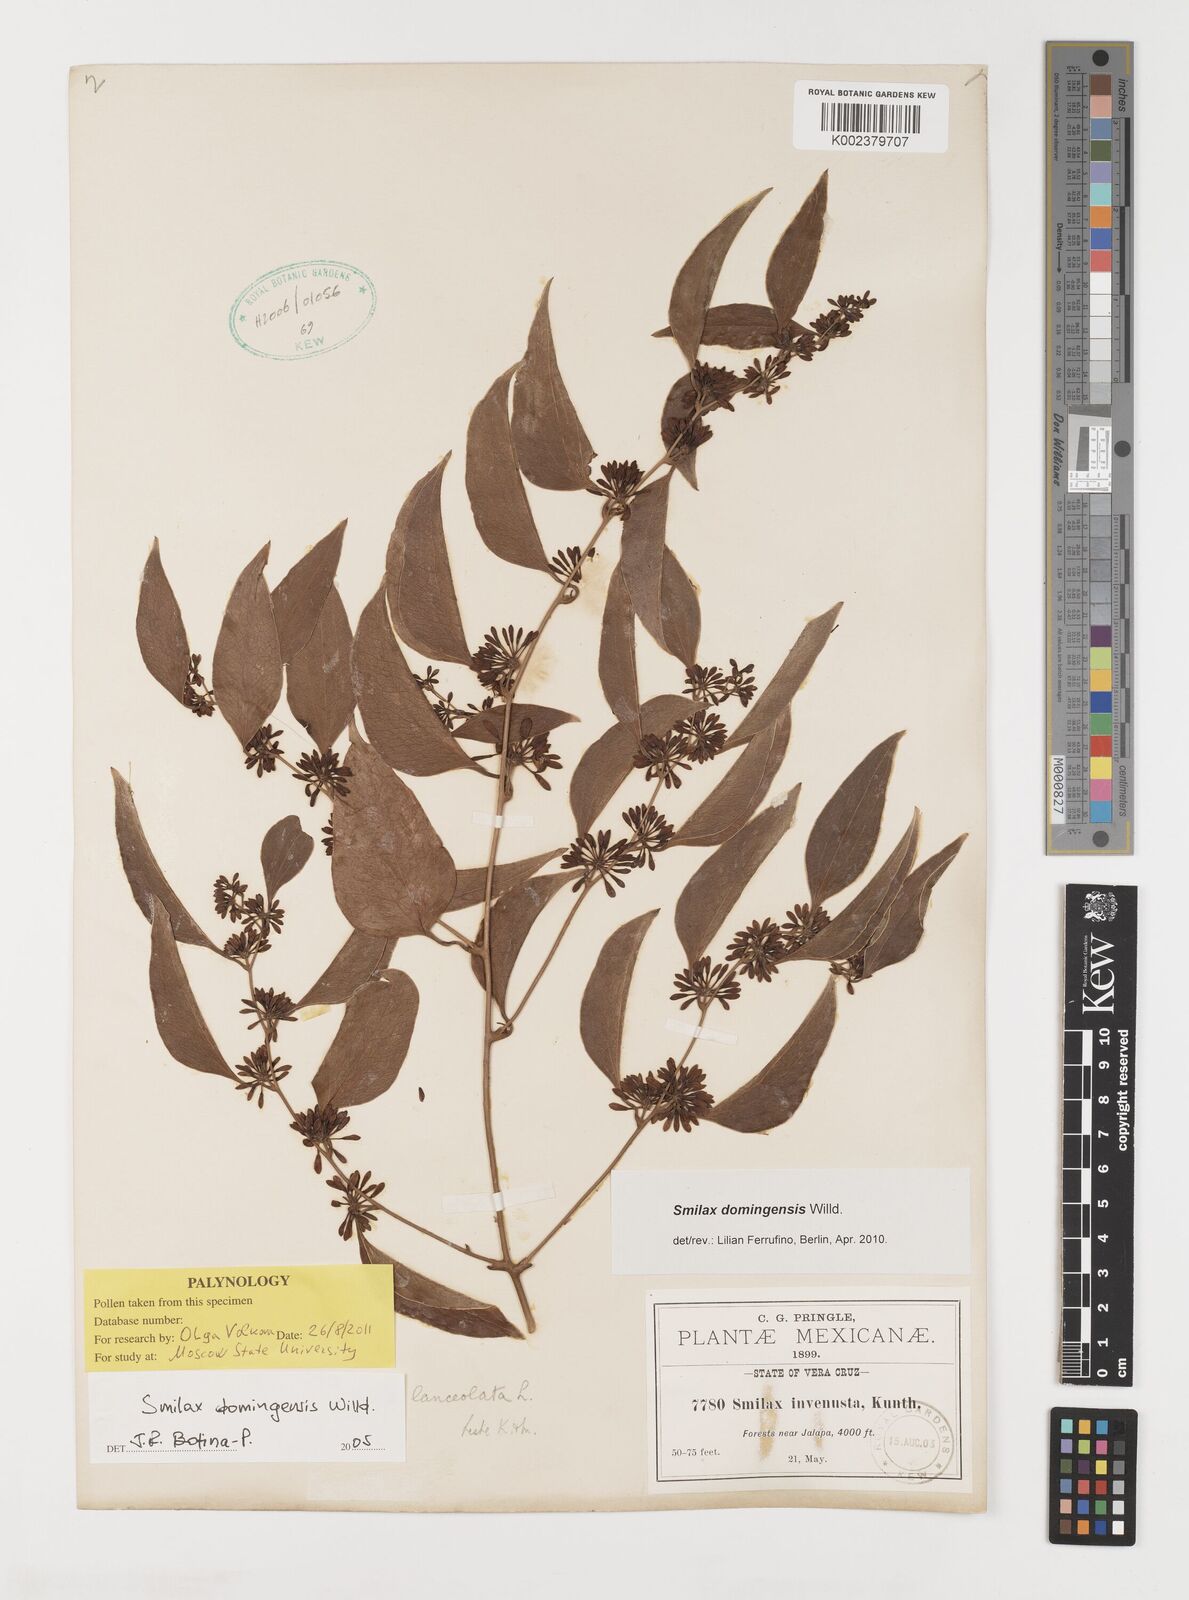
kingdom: Plantae
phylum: Tracheophyta
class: Liliopsida
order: Liliales
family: Smilacaceae
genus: Smilax
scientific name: Smilax domingensis
